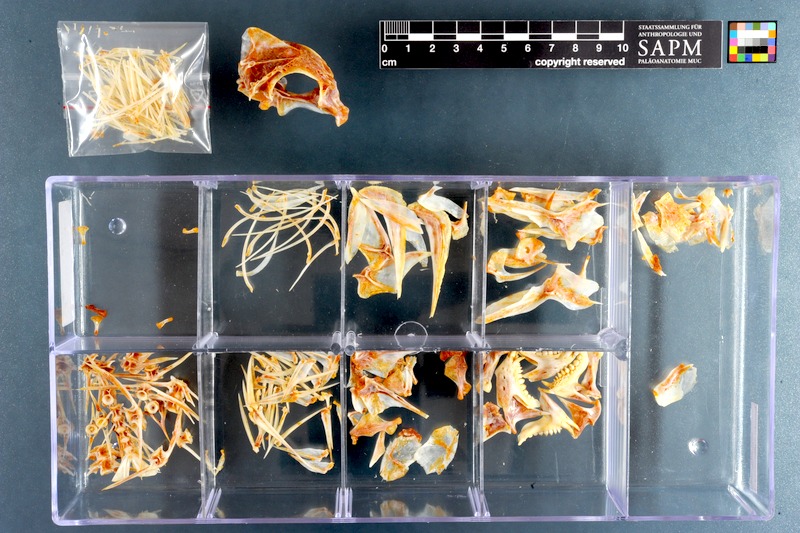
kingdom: Animalia
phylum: Chordata
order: Perciformes
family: Sparidae
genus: Porcostoma
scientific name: Porcostoma dentata
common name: Dane
